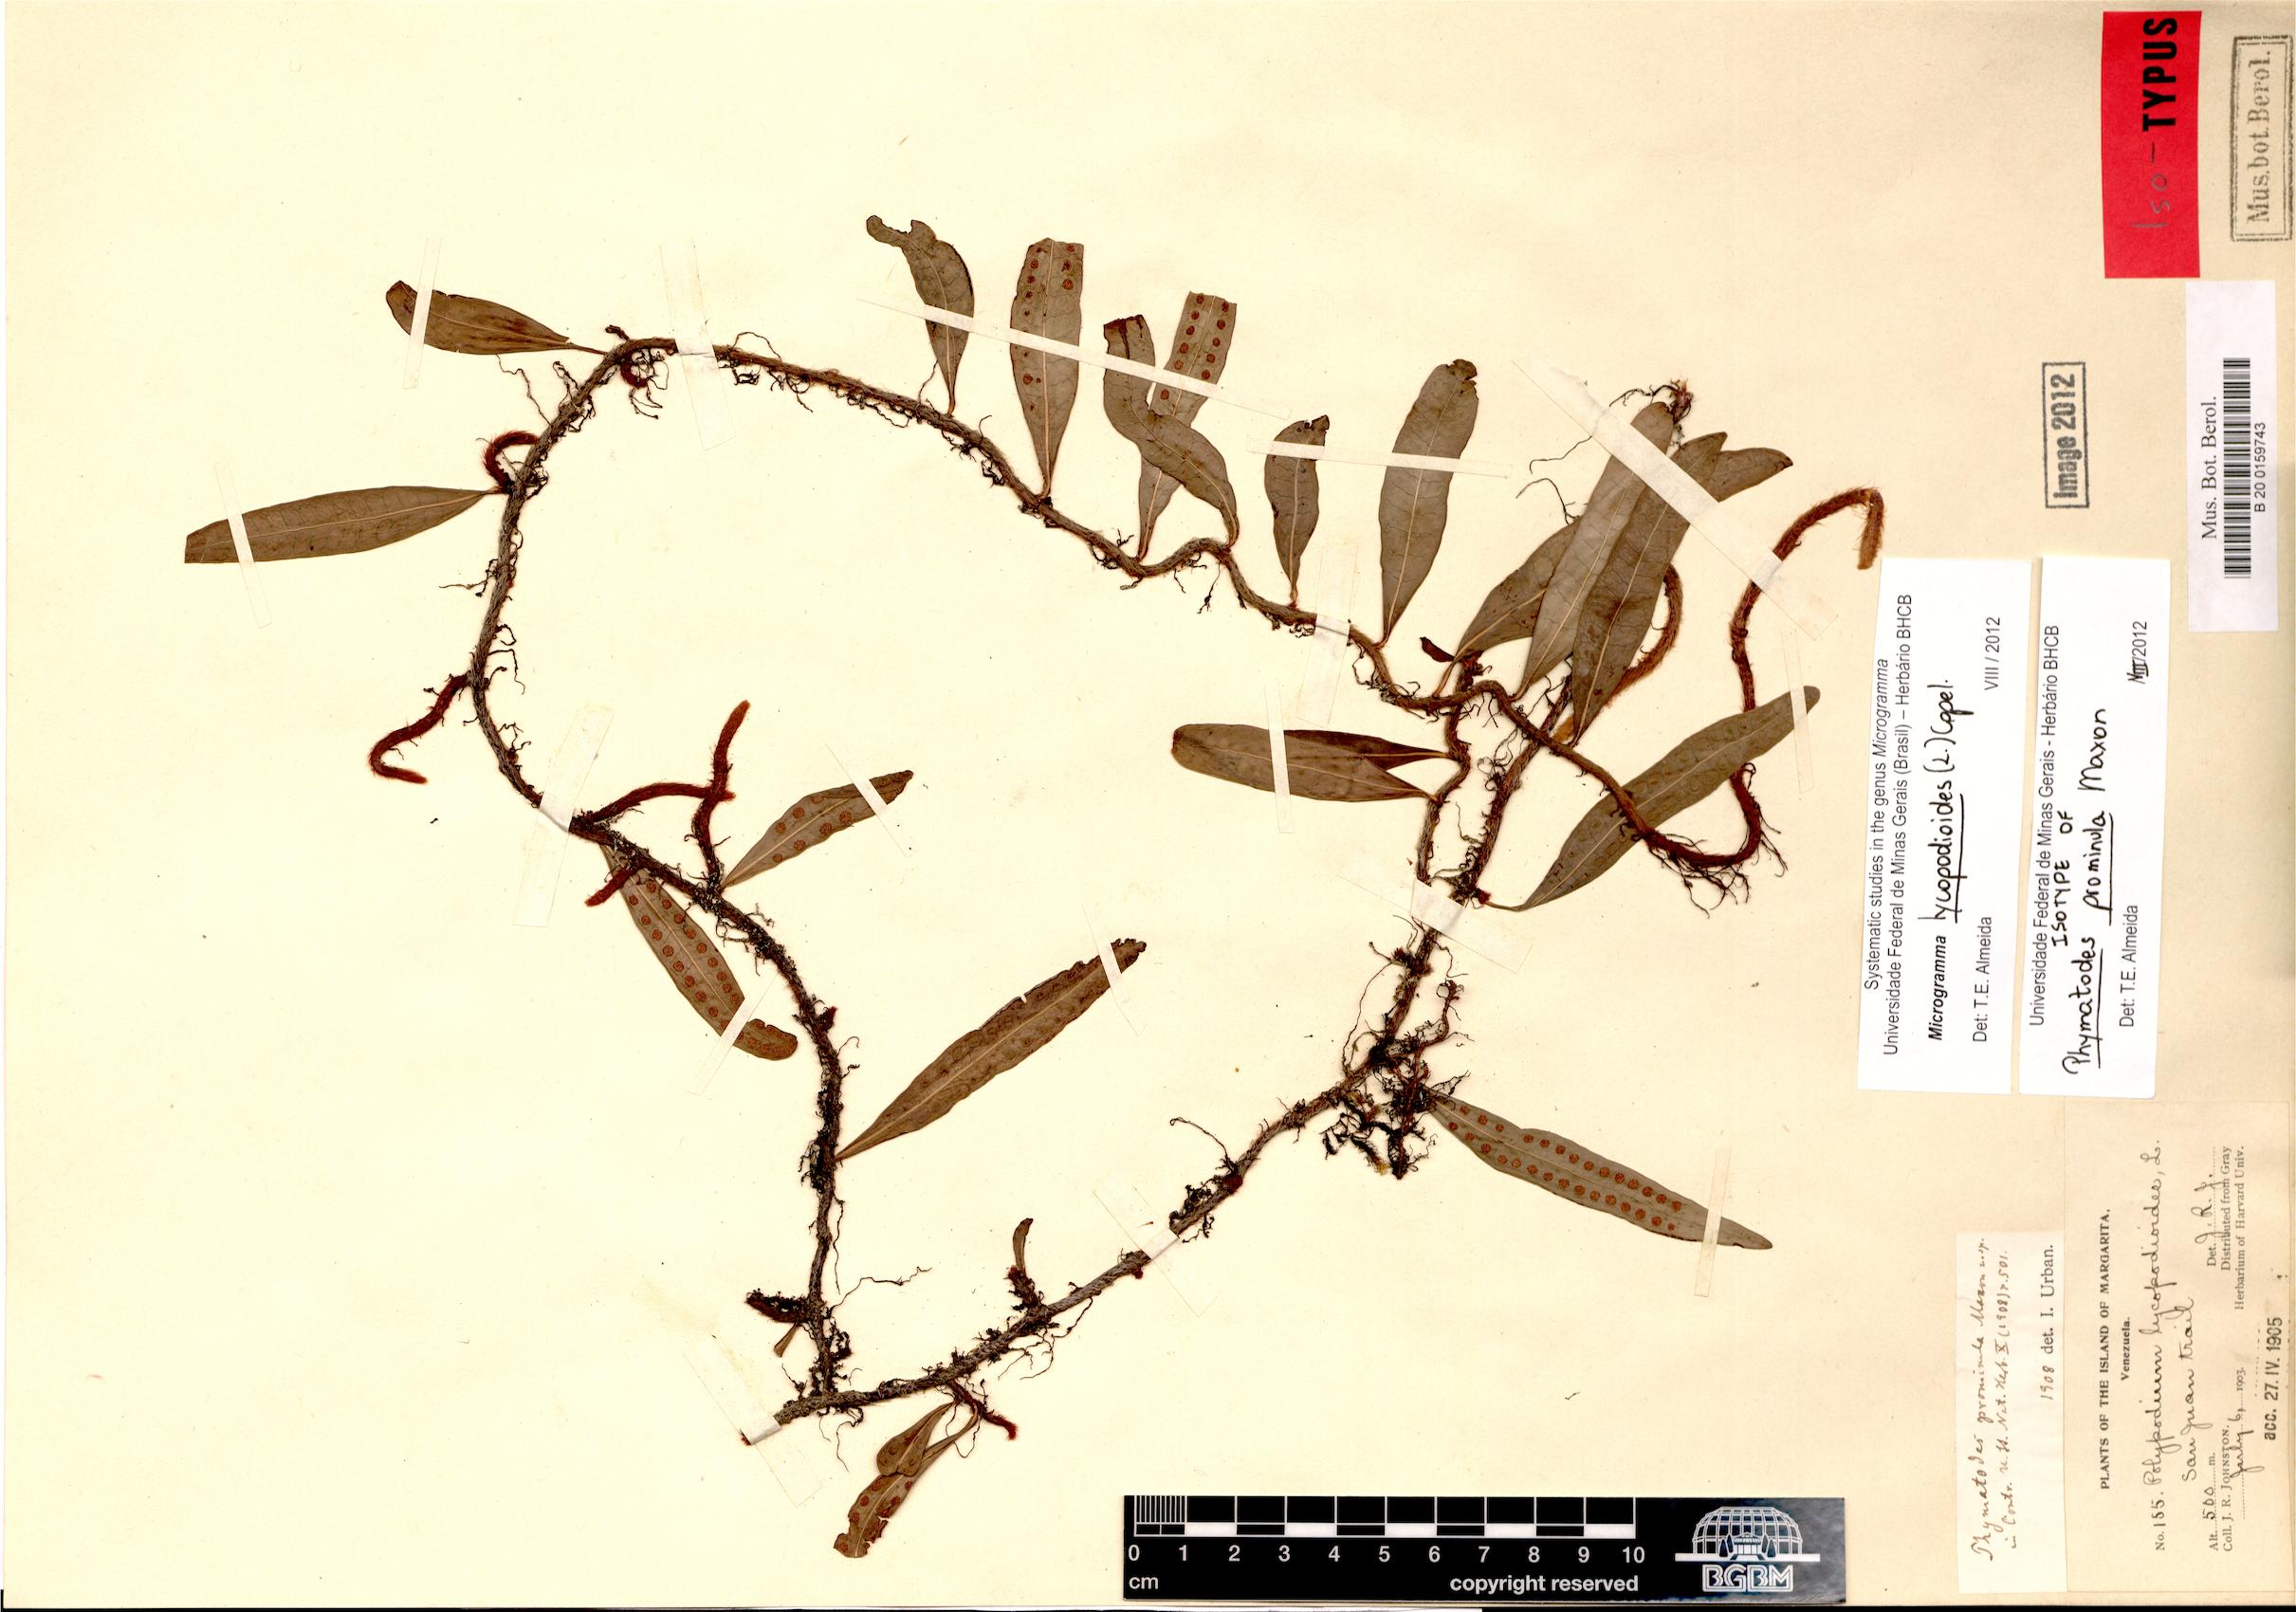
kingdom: Plantae
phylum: Tracheophyta
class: Polypodiopsida
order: Polypodiales
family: Polypodiaceae
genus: Microgramma
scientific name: Microgramma lycopodioides
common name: Bastard catclaw
